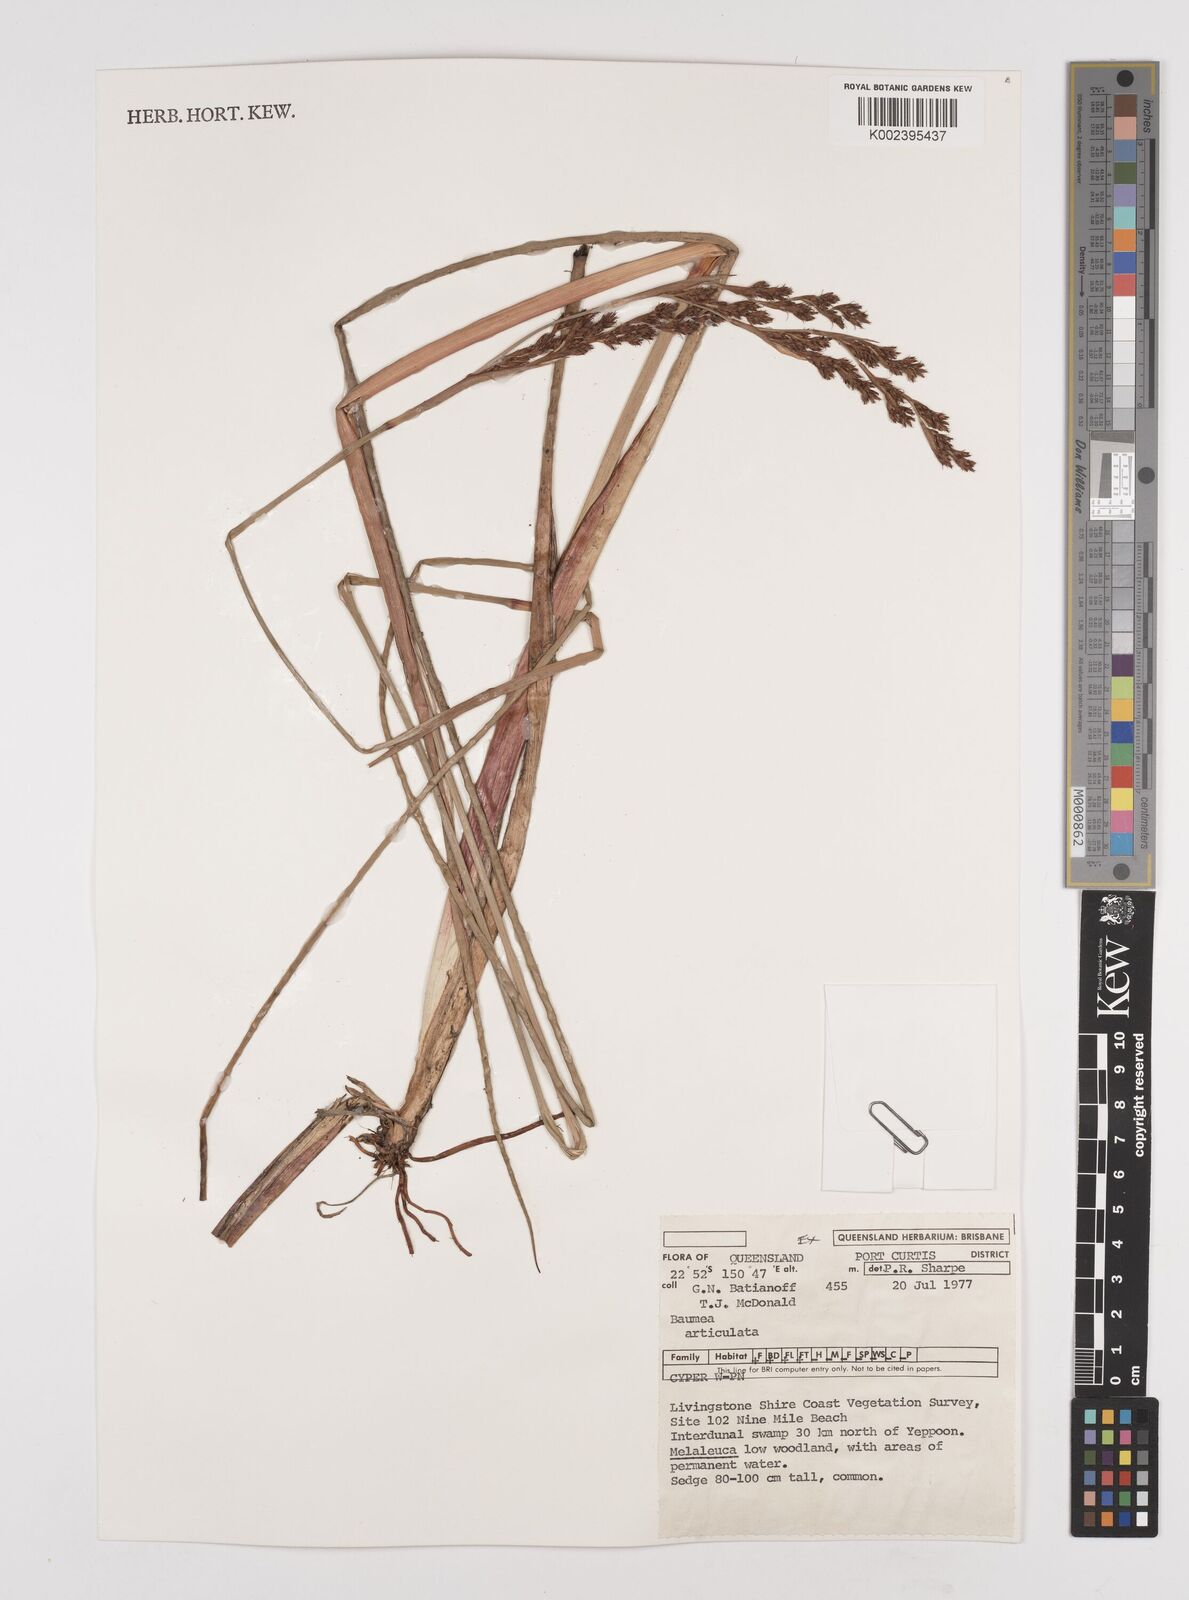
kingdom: Plantae
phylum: Tracheophyta
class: Liliopsida
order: Poales
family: Cyperaceae
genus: Machaerina
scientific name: Machaerina articulata
